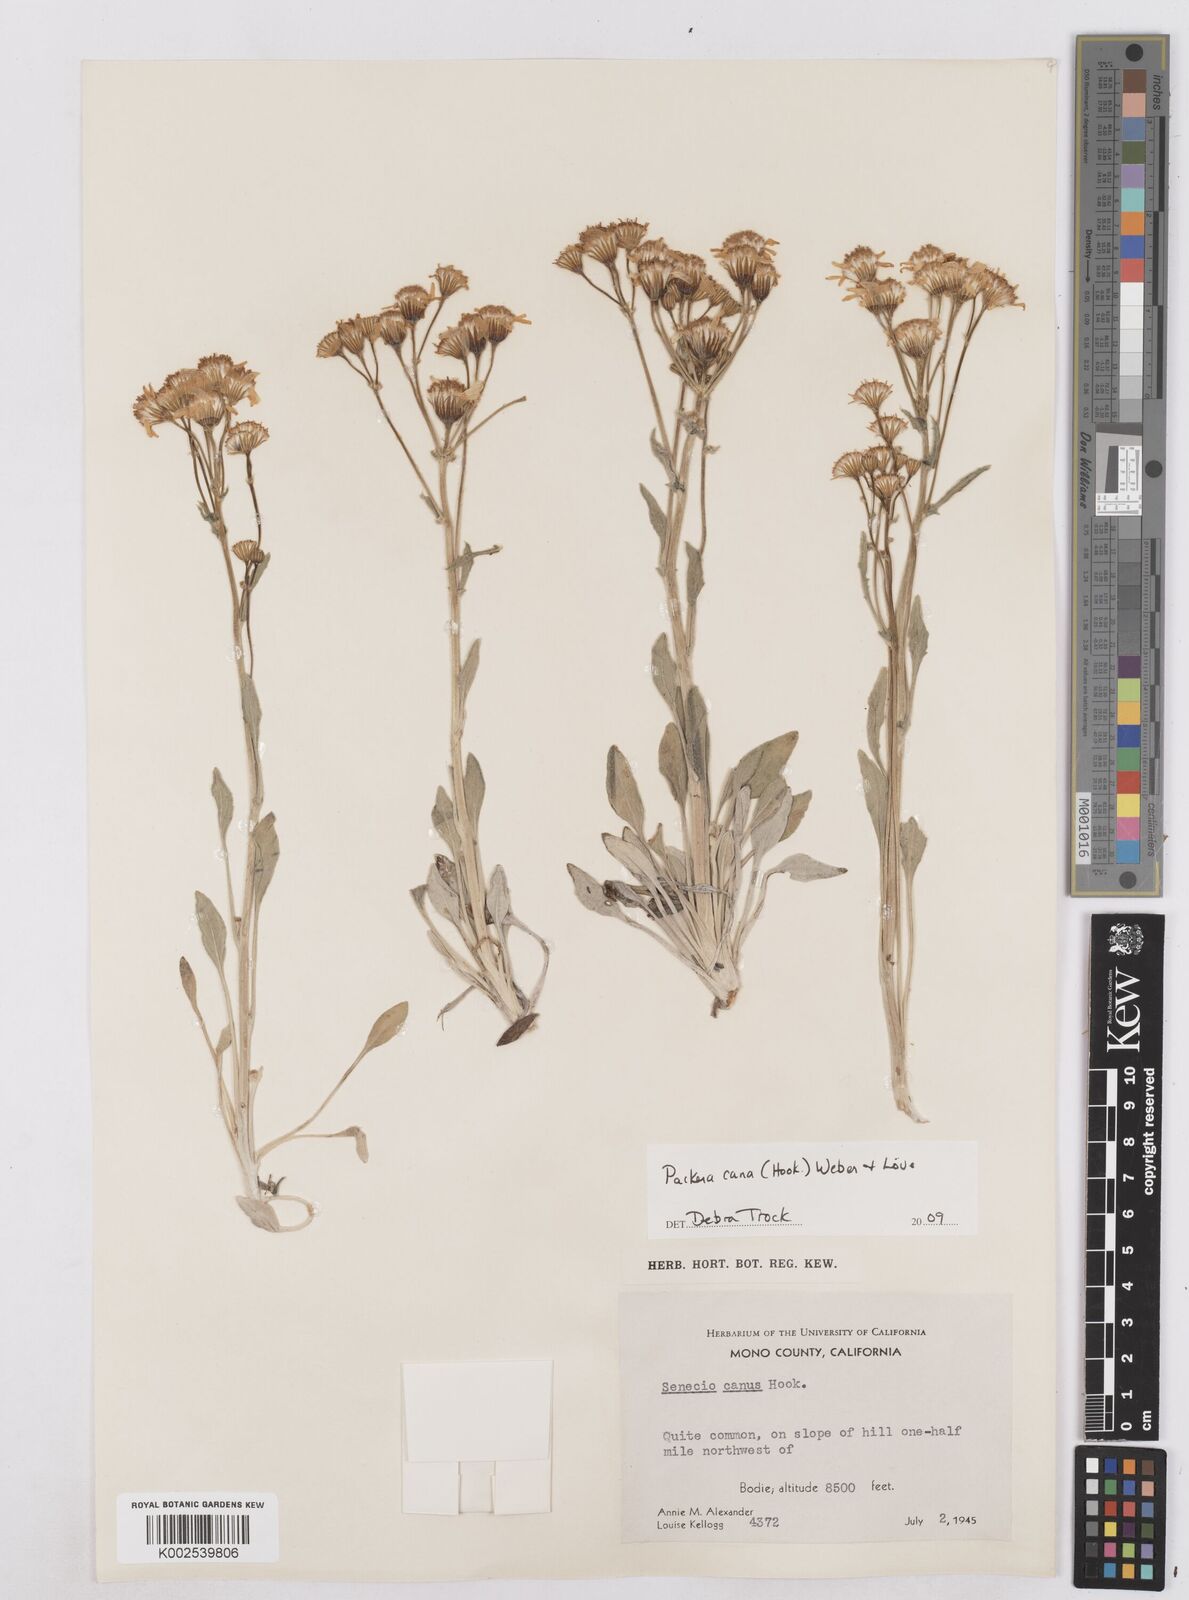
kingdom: Plantae
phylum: Tracheophyta
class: Magnoliopsida
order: Asterales
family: Asteraceae
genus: Packera
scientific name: Packera cana
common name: Woolly groundsel
